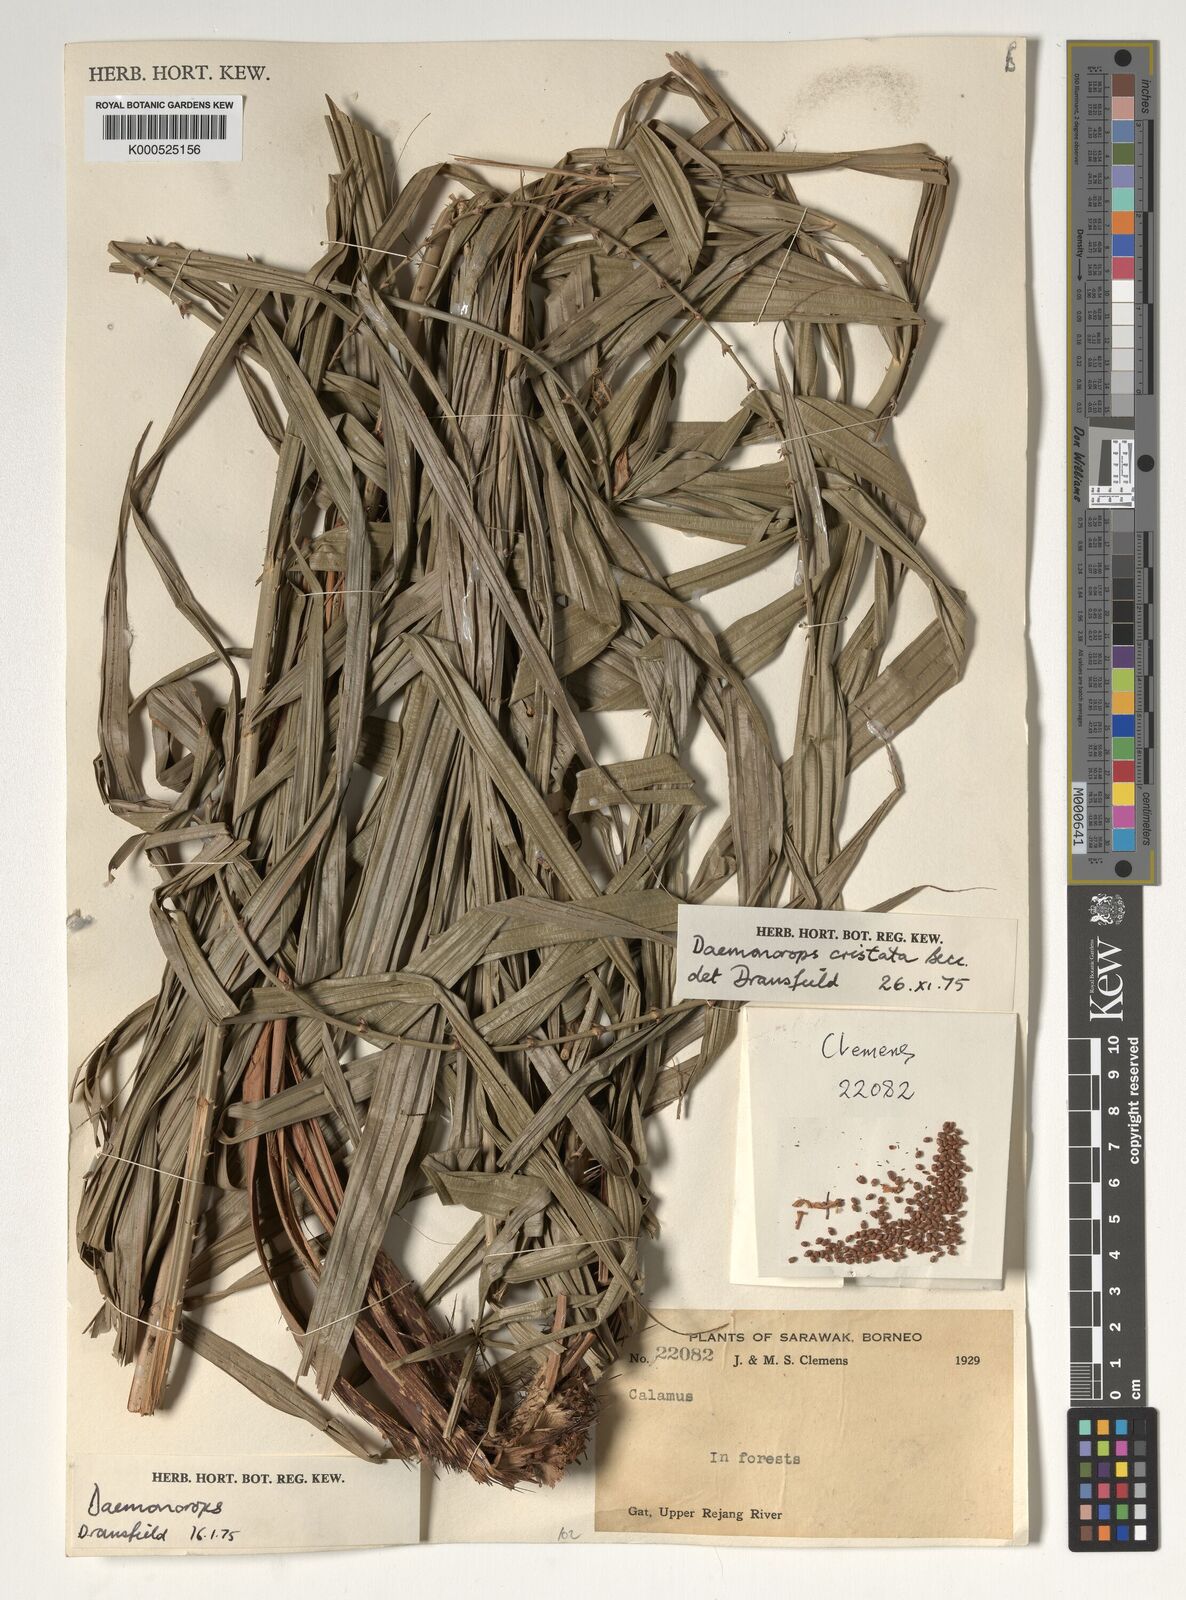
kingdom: Plantae
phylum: Tracheophyta
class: Liliopsida
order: Arecales
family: Arecaceae
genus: Calamus
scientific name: Calamus cristatus
